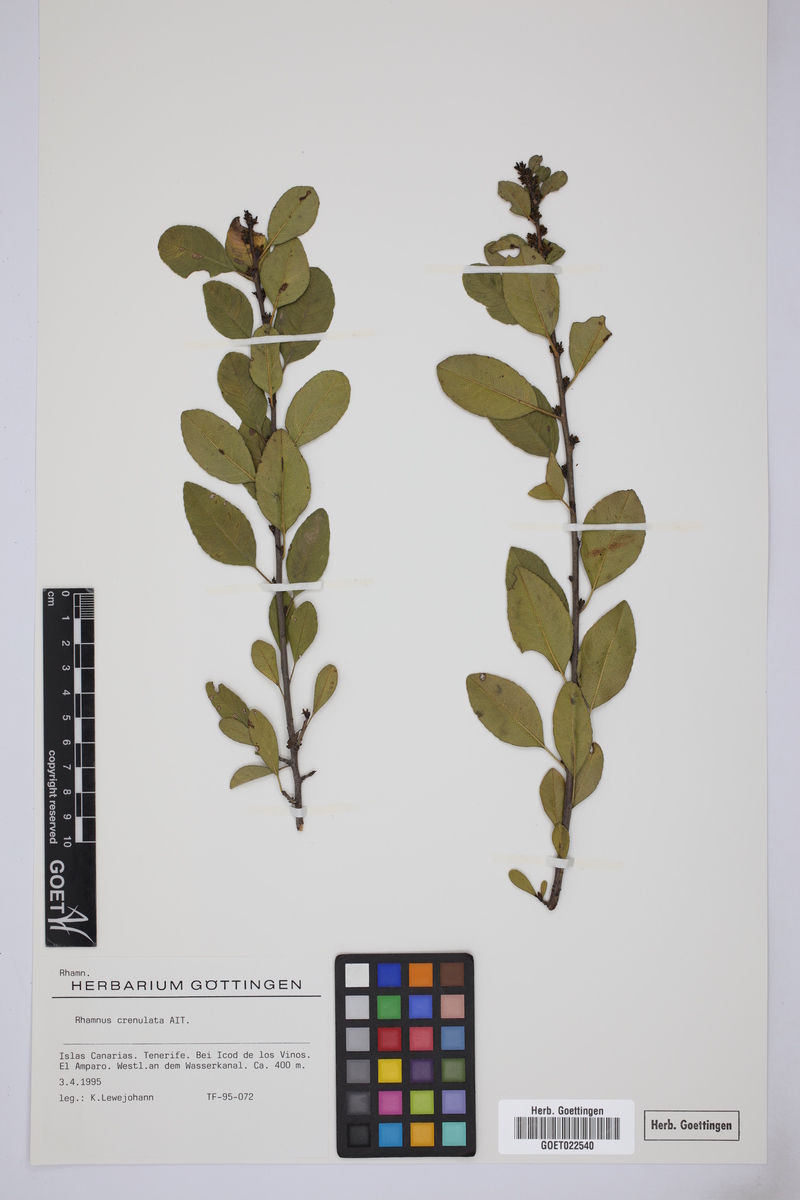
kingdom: Plantae
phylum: Tracheophyta
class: Magnoliopsida
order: Rosales
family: Rhamnaceae
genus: Rhamnus
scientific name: Rhamnus crenulata
